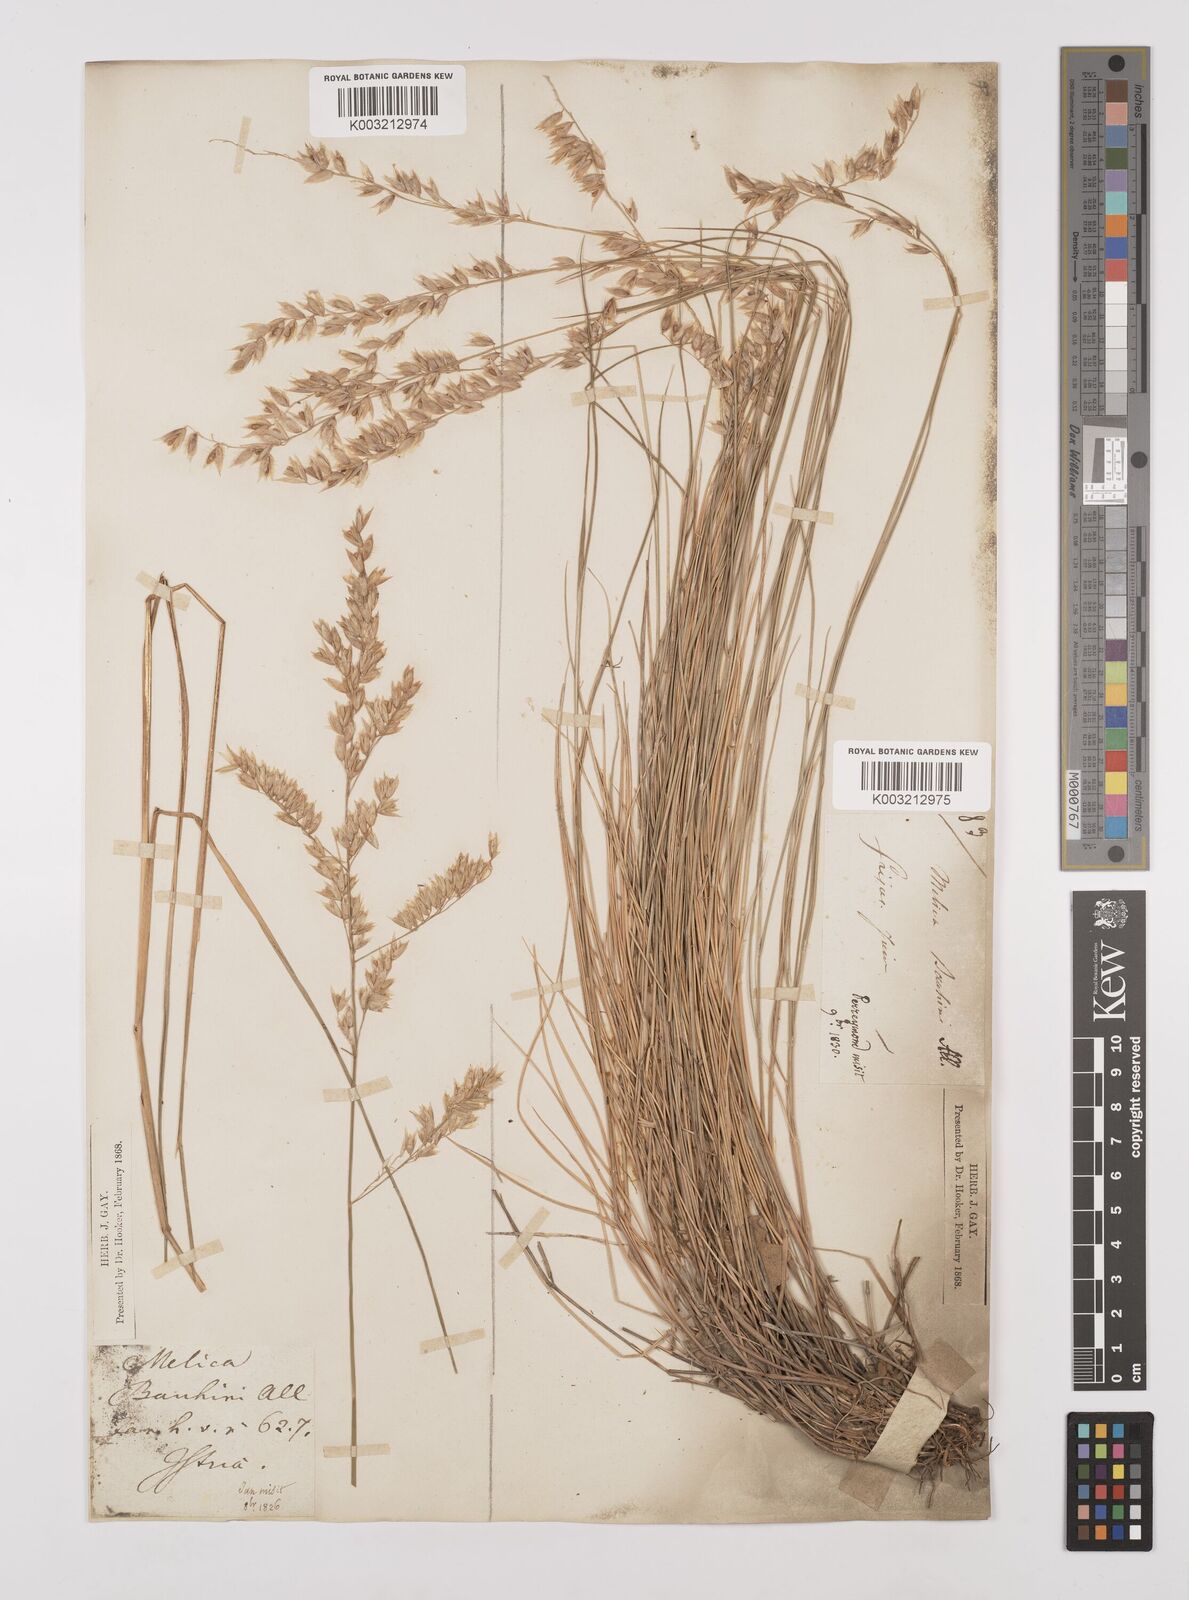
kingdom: Plantae
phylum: Tracheophyta
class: Liliopsida
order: Poales
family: Poaceae
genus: Melica
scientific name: Melica amethystina
